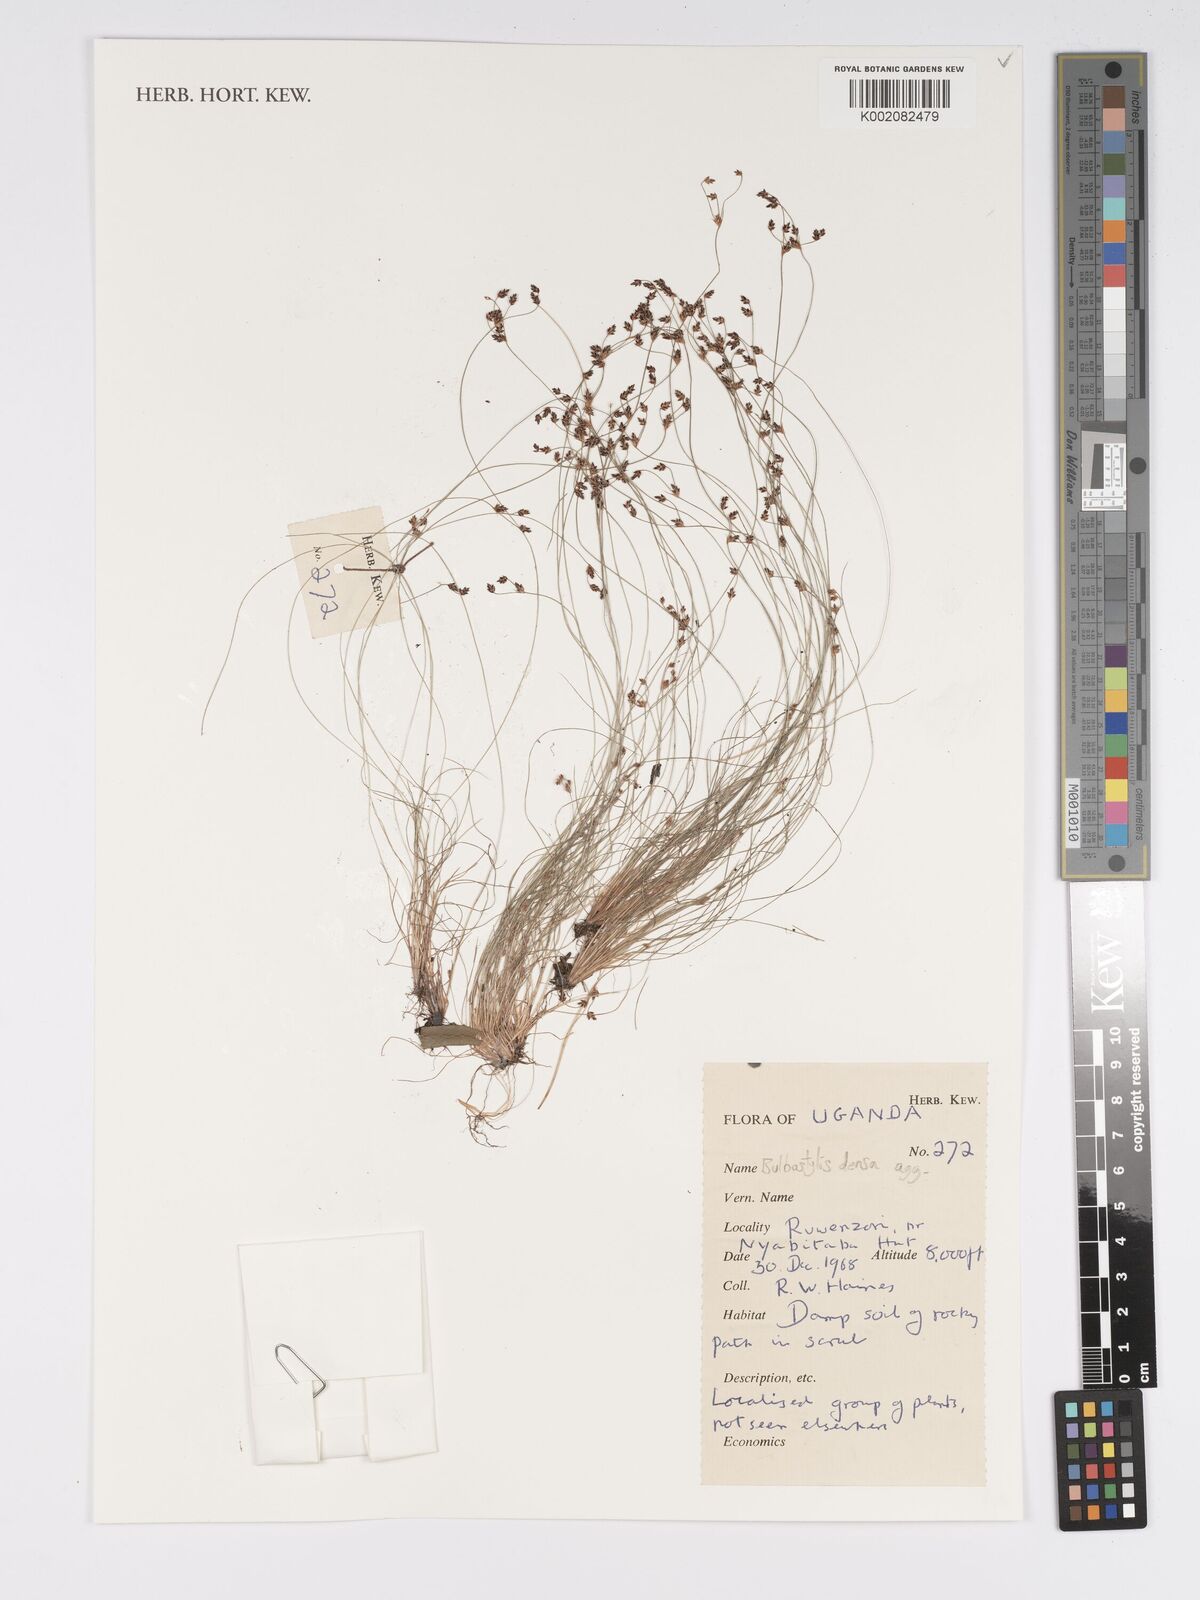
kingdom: Plantae
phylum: Tracheophyta
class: Liliopsida
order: Poales
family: Cyperaceae
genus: Bulbostylis
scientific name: Bulbostylis densa
